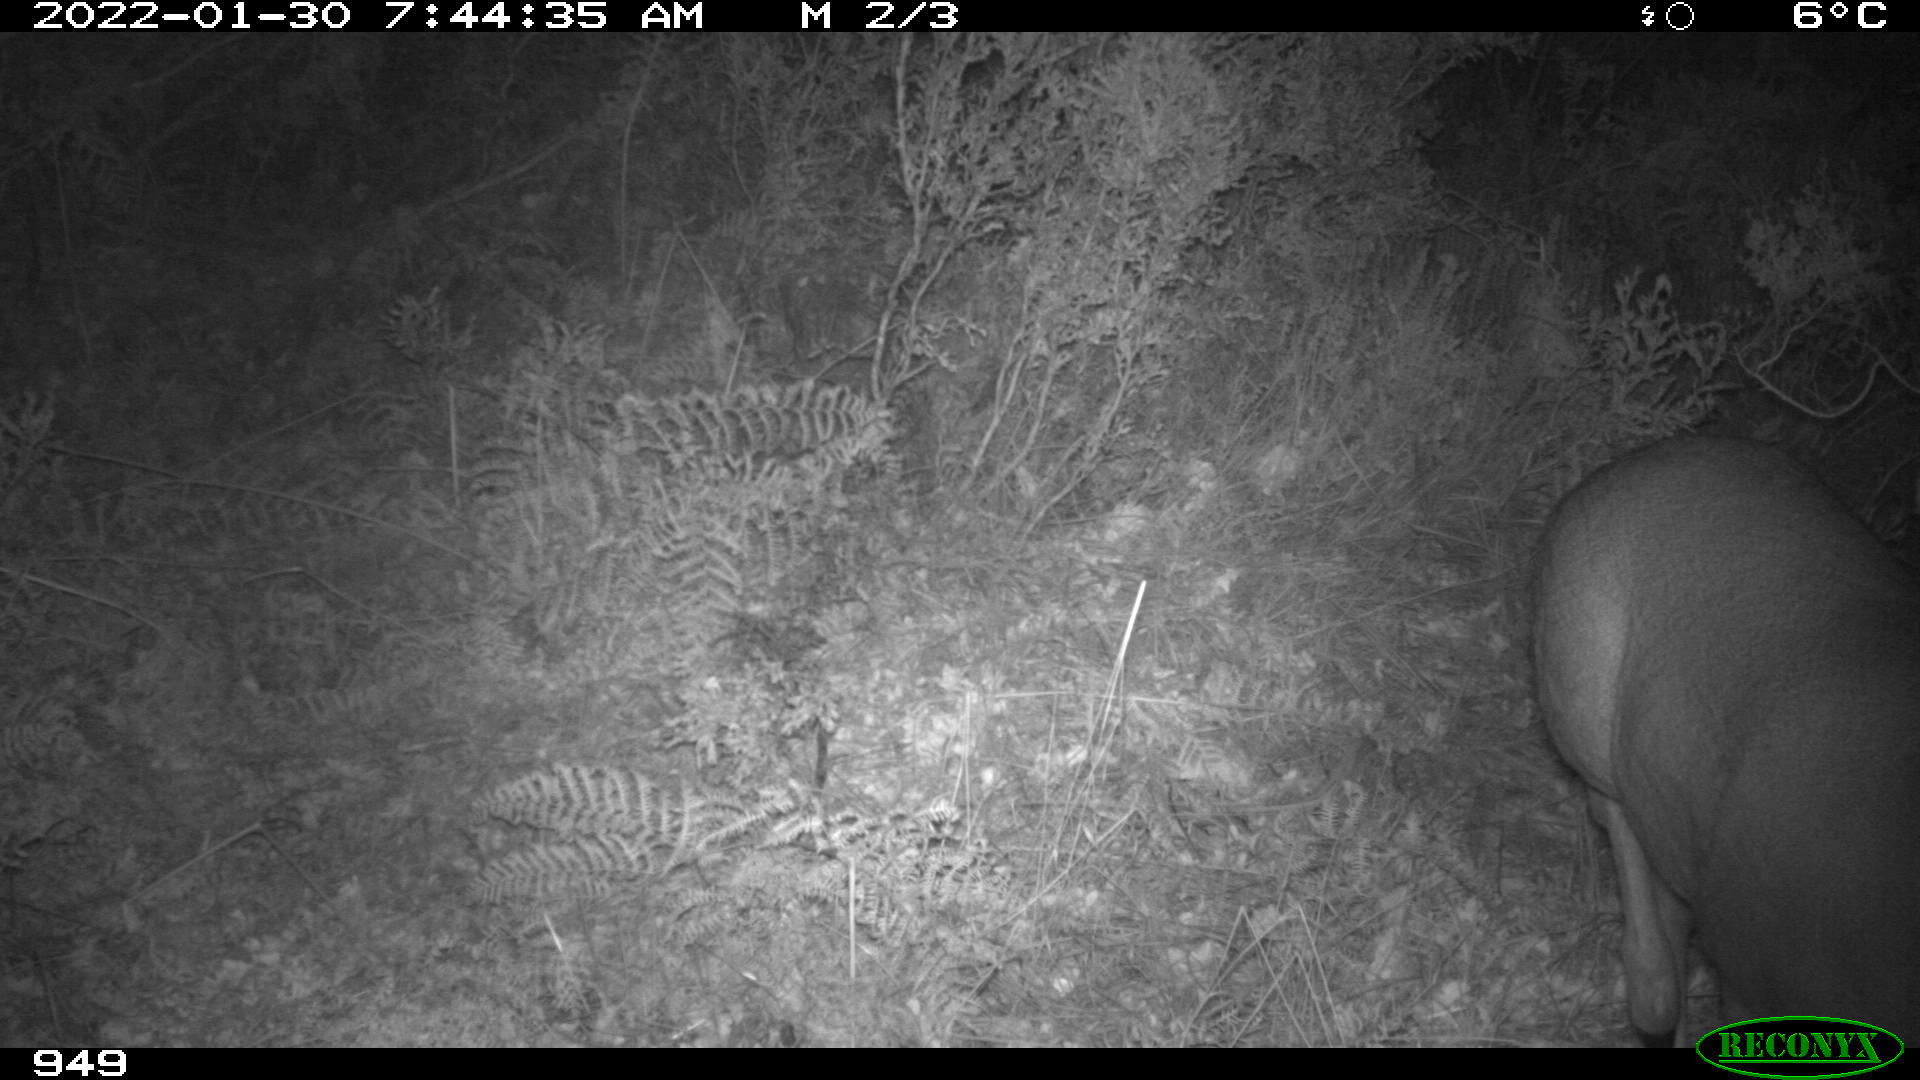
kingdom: Animalia
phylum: Chordata
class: Mammalia
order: Artiodactyla
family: Cervidae
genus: Cervus
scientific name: Cervus elaphus
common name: Red deer
